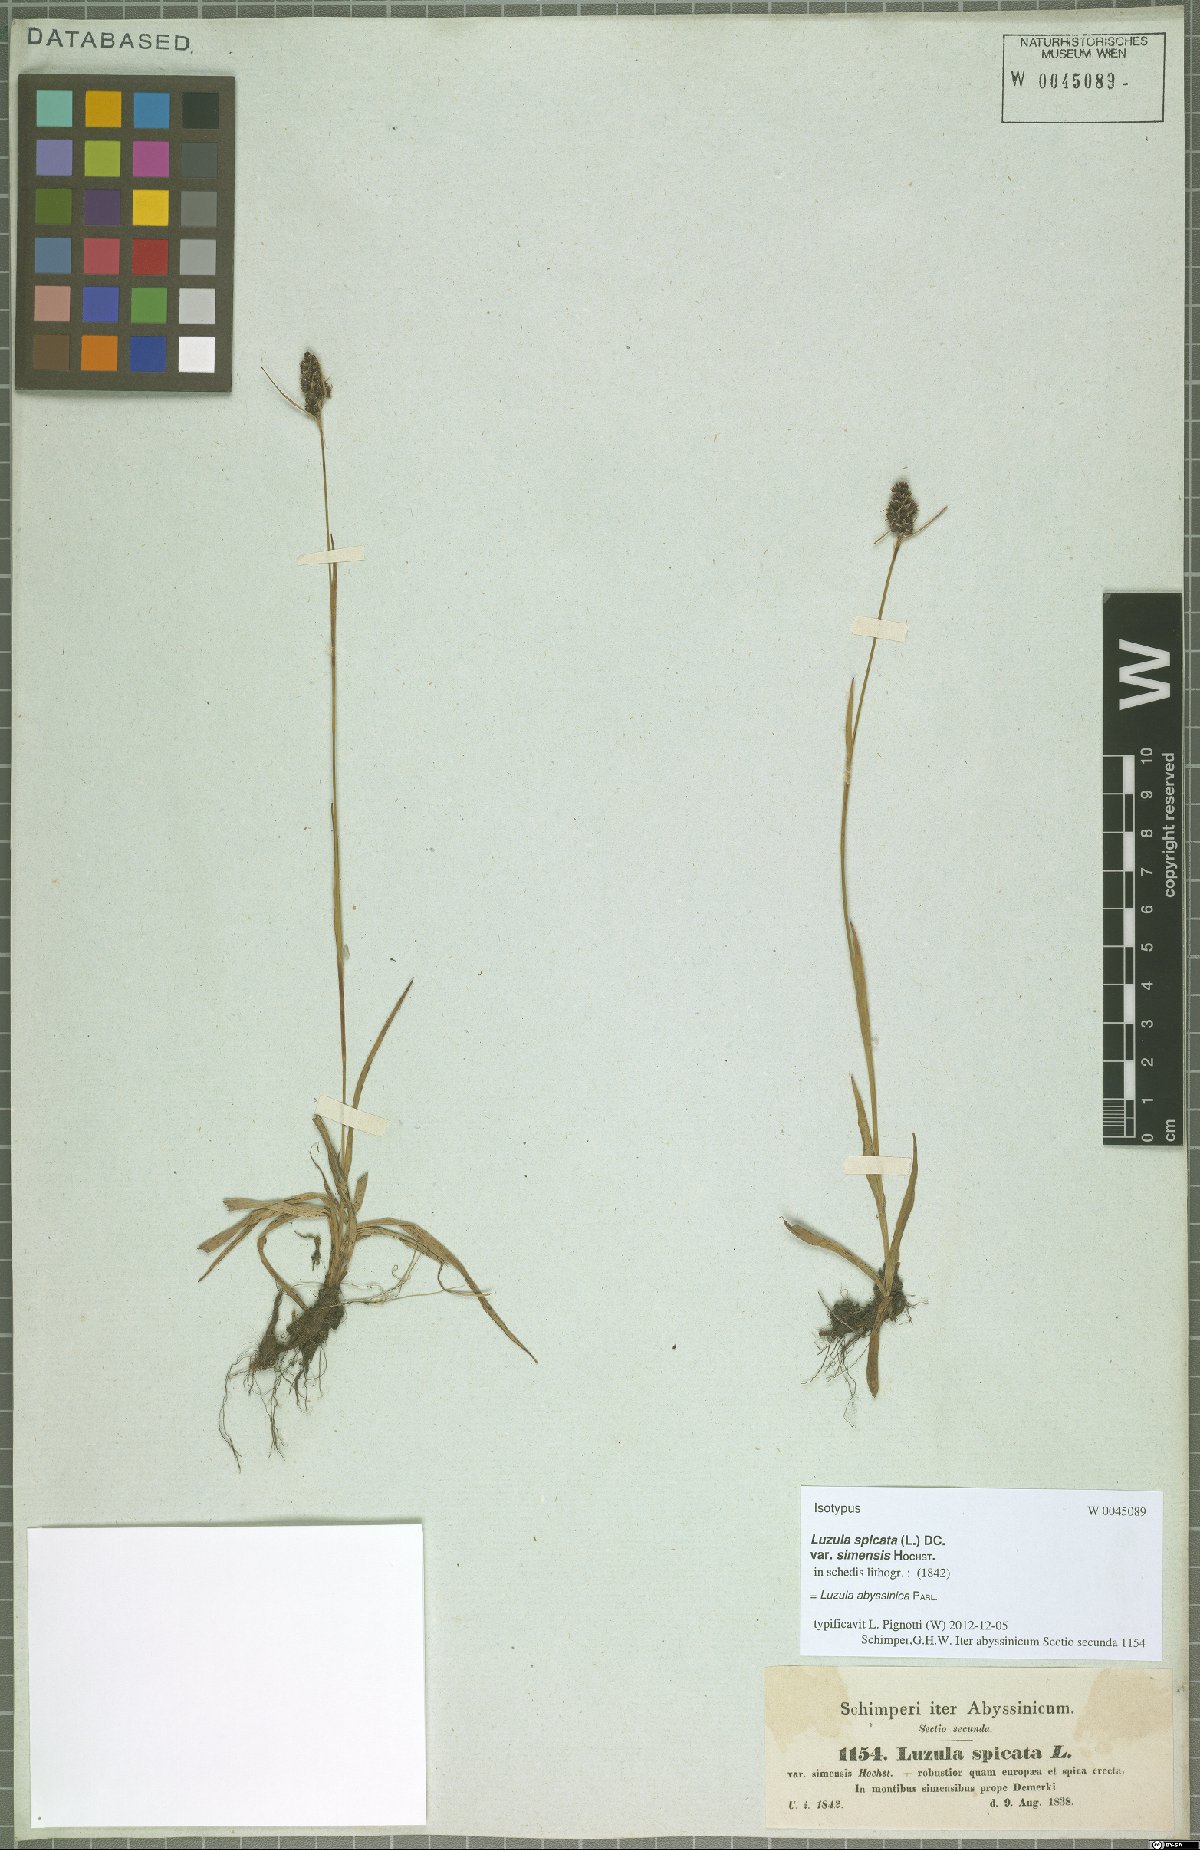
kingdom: Plantae
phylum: Tracheophyta
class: Liliopsida
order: Poales
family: Juncaceae
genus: Luzula
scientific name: Luzula abyssinica
